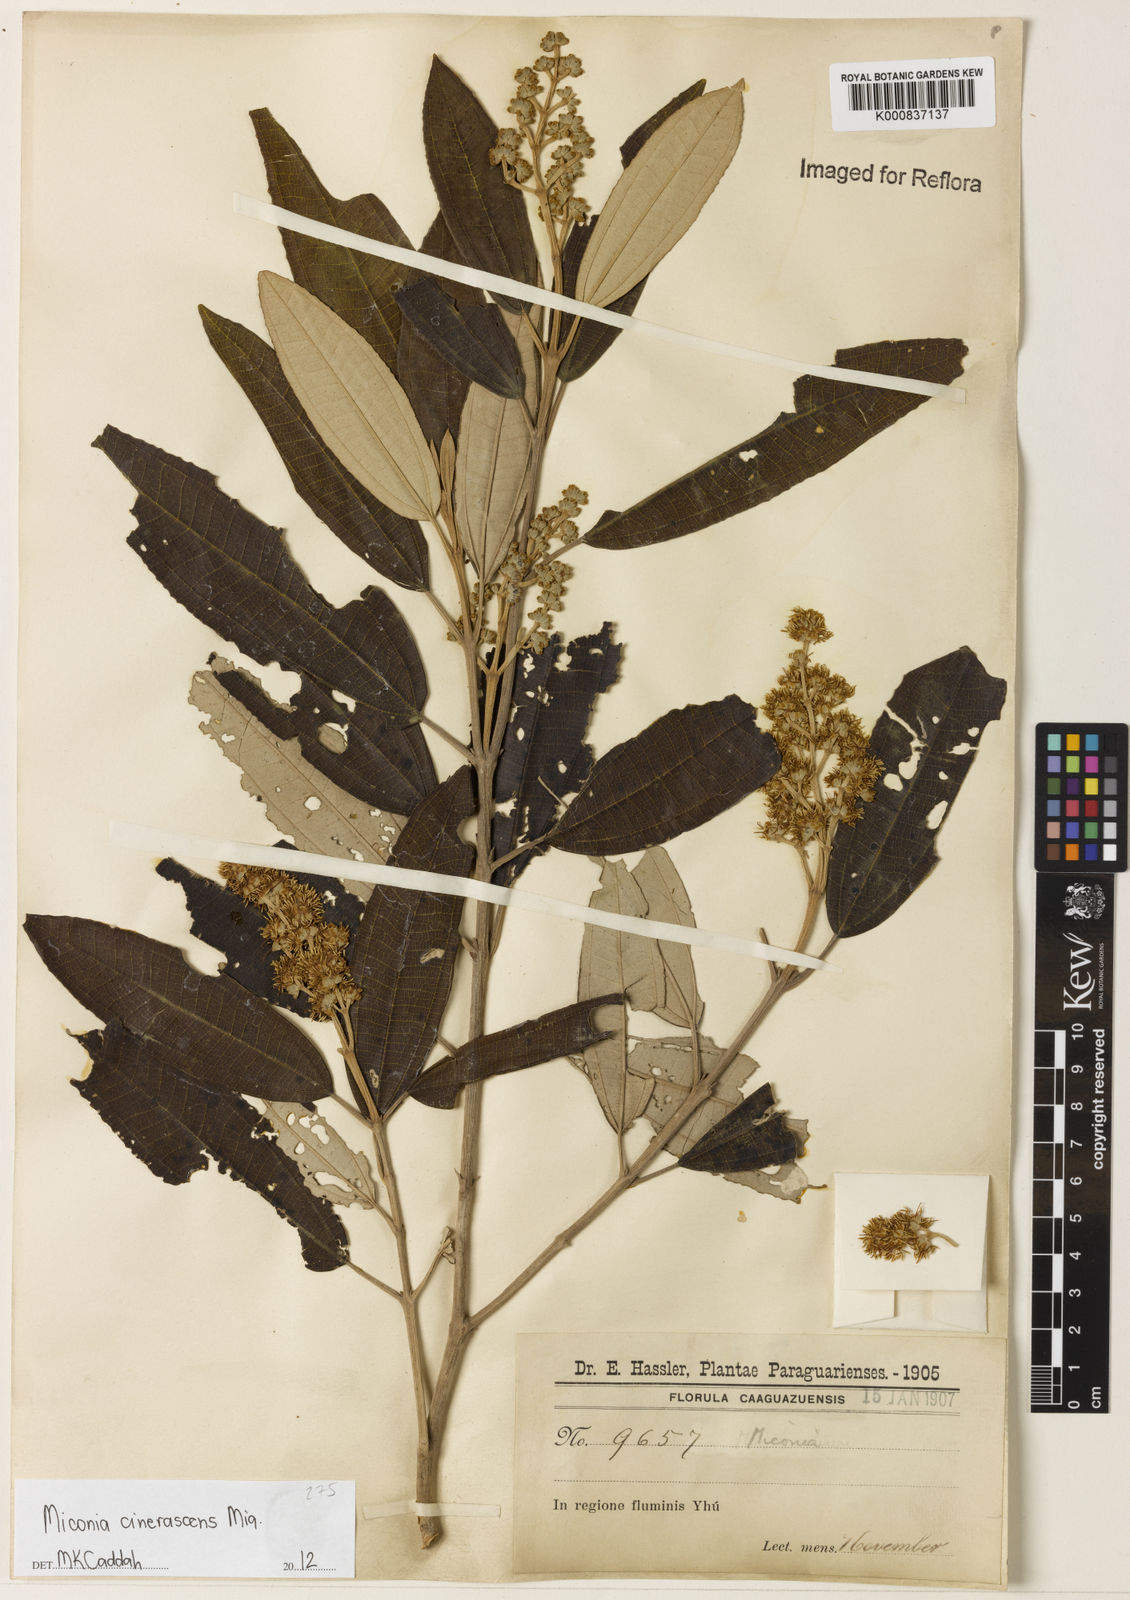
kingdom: Plantae
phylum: Tracheophyta
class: Magnoliopsida
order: Myrtales
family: Melastomataceae
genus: Miconia
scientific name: Miconia cinerascens
